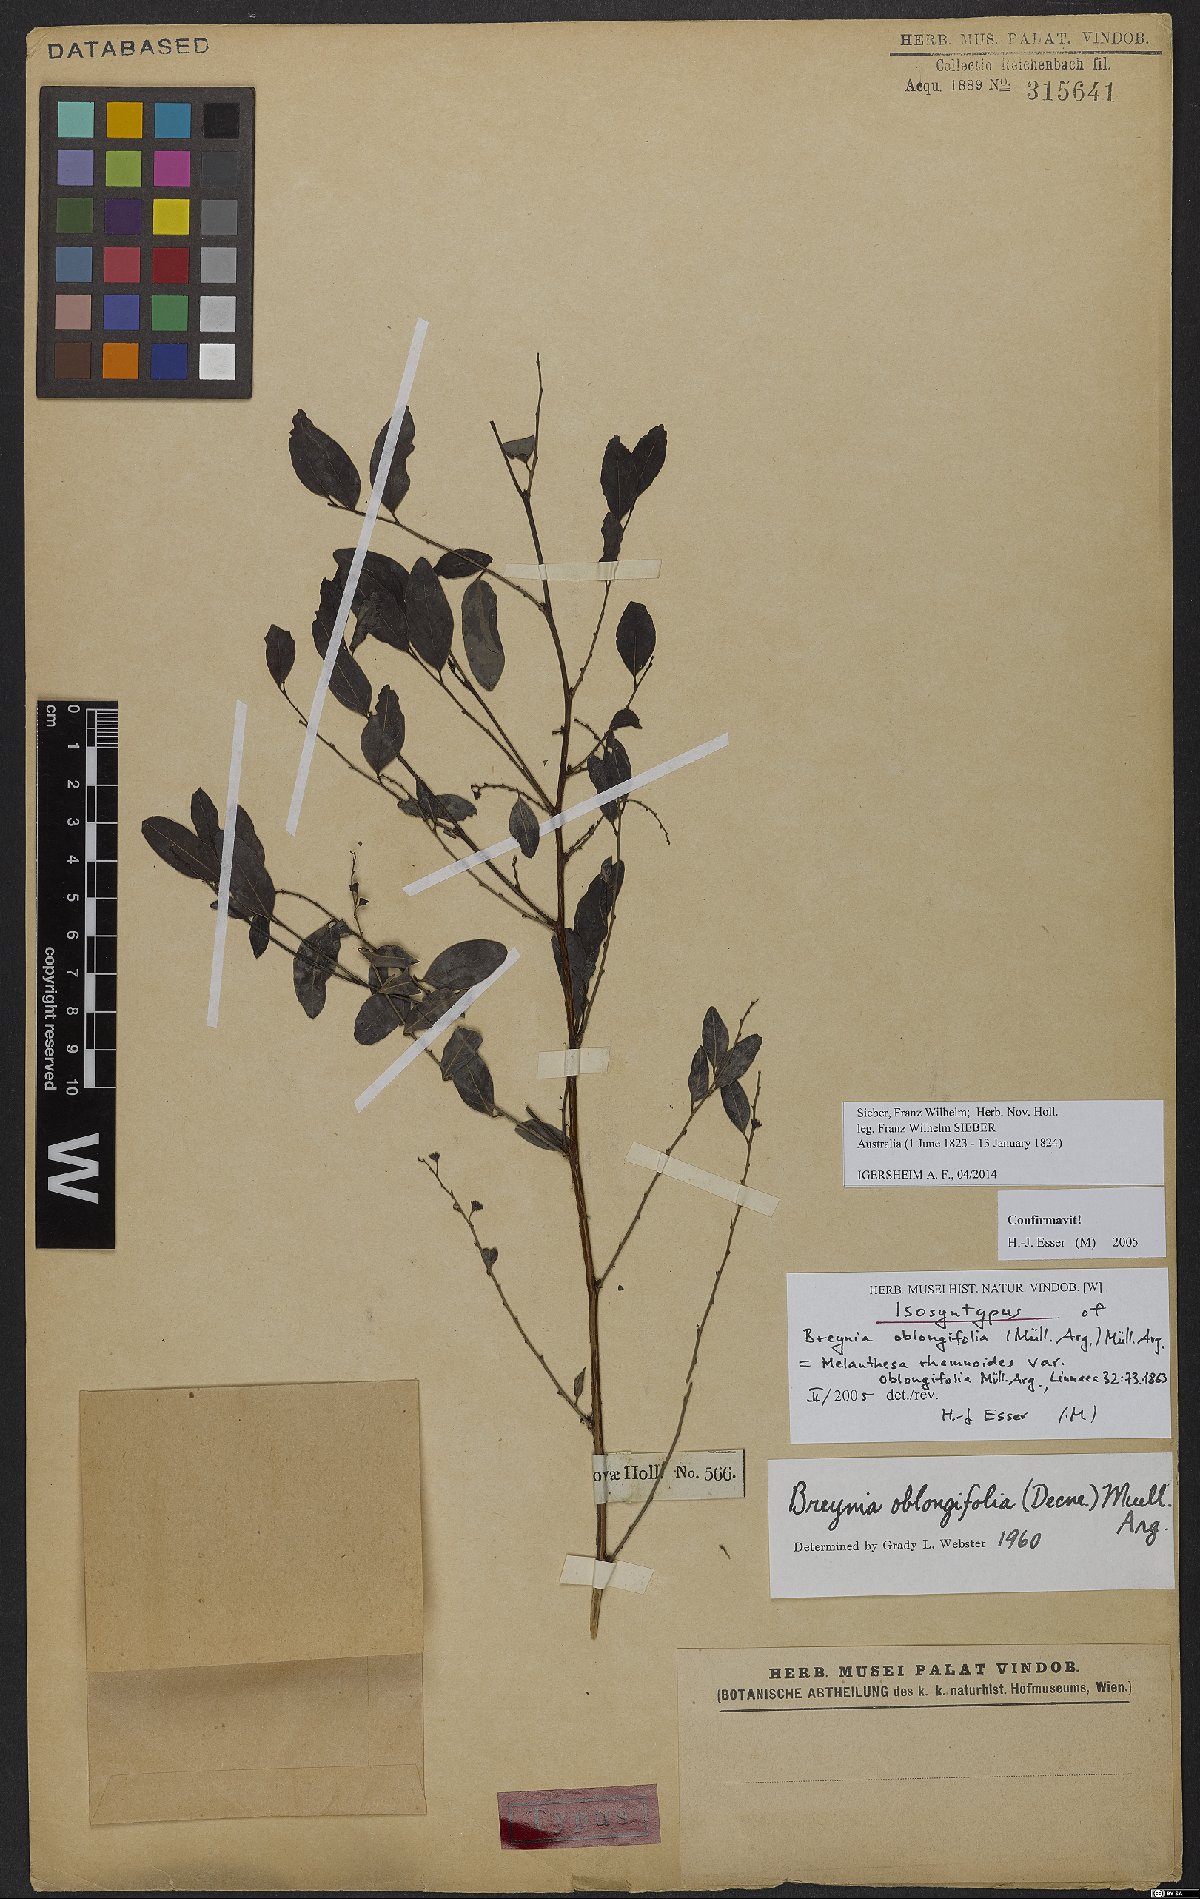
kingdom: Plantae
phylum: Tracheophyta
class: Magnoliopsida
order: Malpighiales
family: Phyllanthaceae
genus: Breynia
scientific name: Breynia oblongifolia
